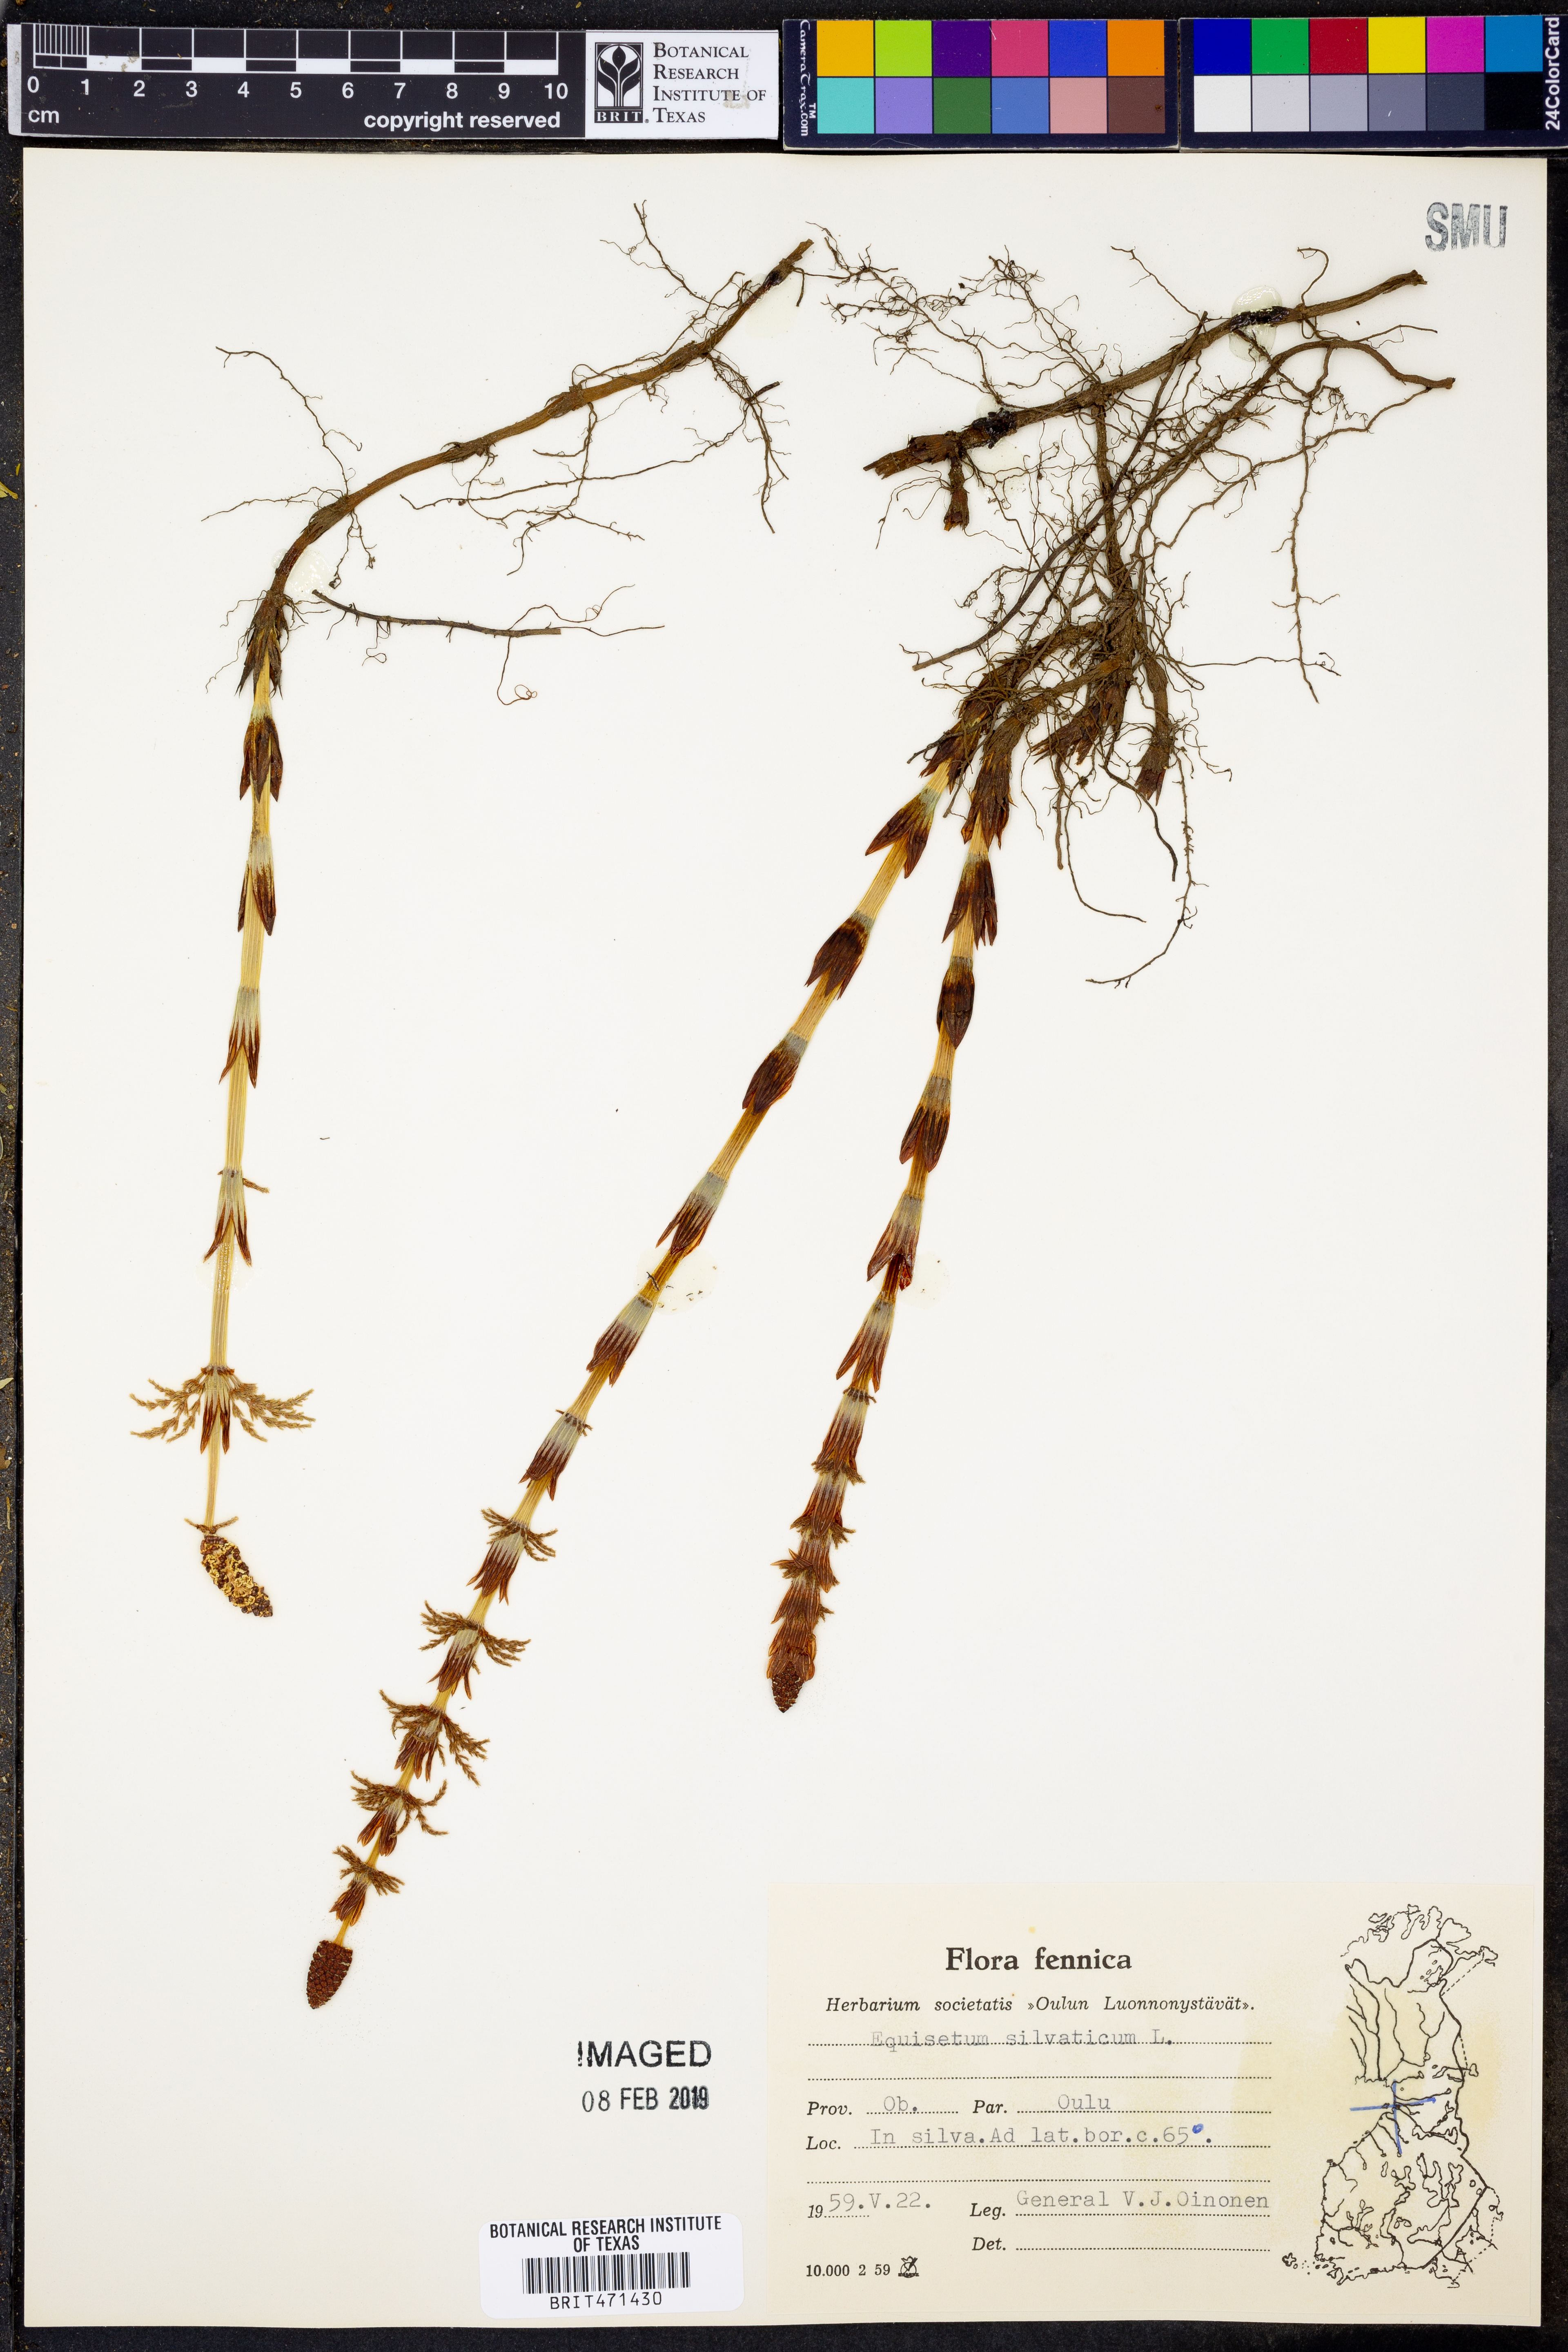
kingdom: Plantae
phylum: Tracheophyta
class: Polypodiopsida
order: Equisetales
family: Equisetaceae
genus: Equisetum
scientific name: Equisetum sylvaticum
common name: Wood horsetail
